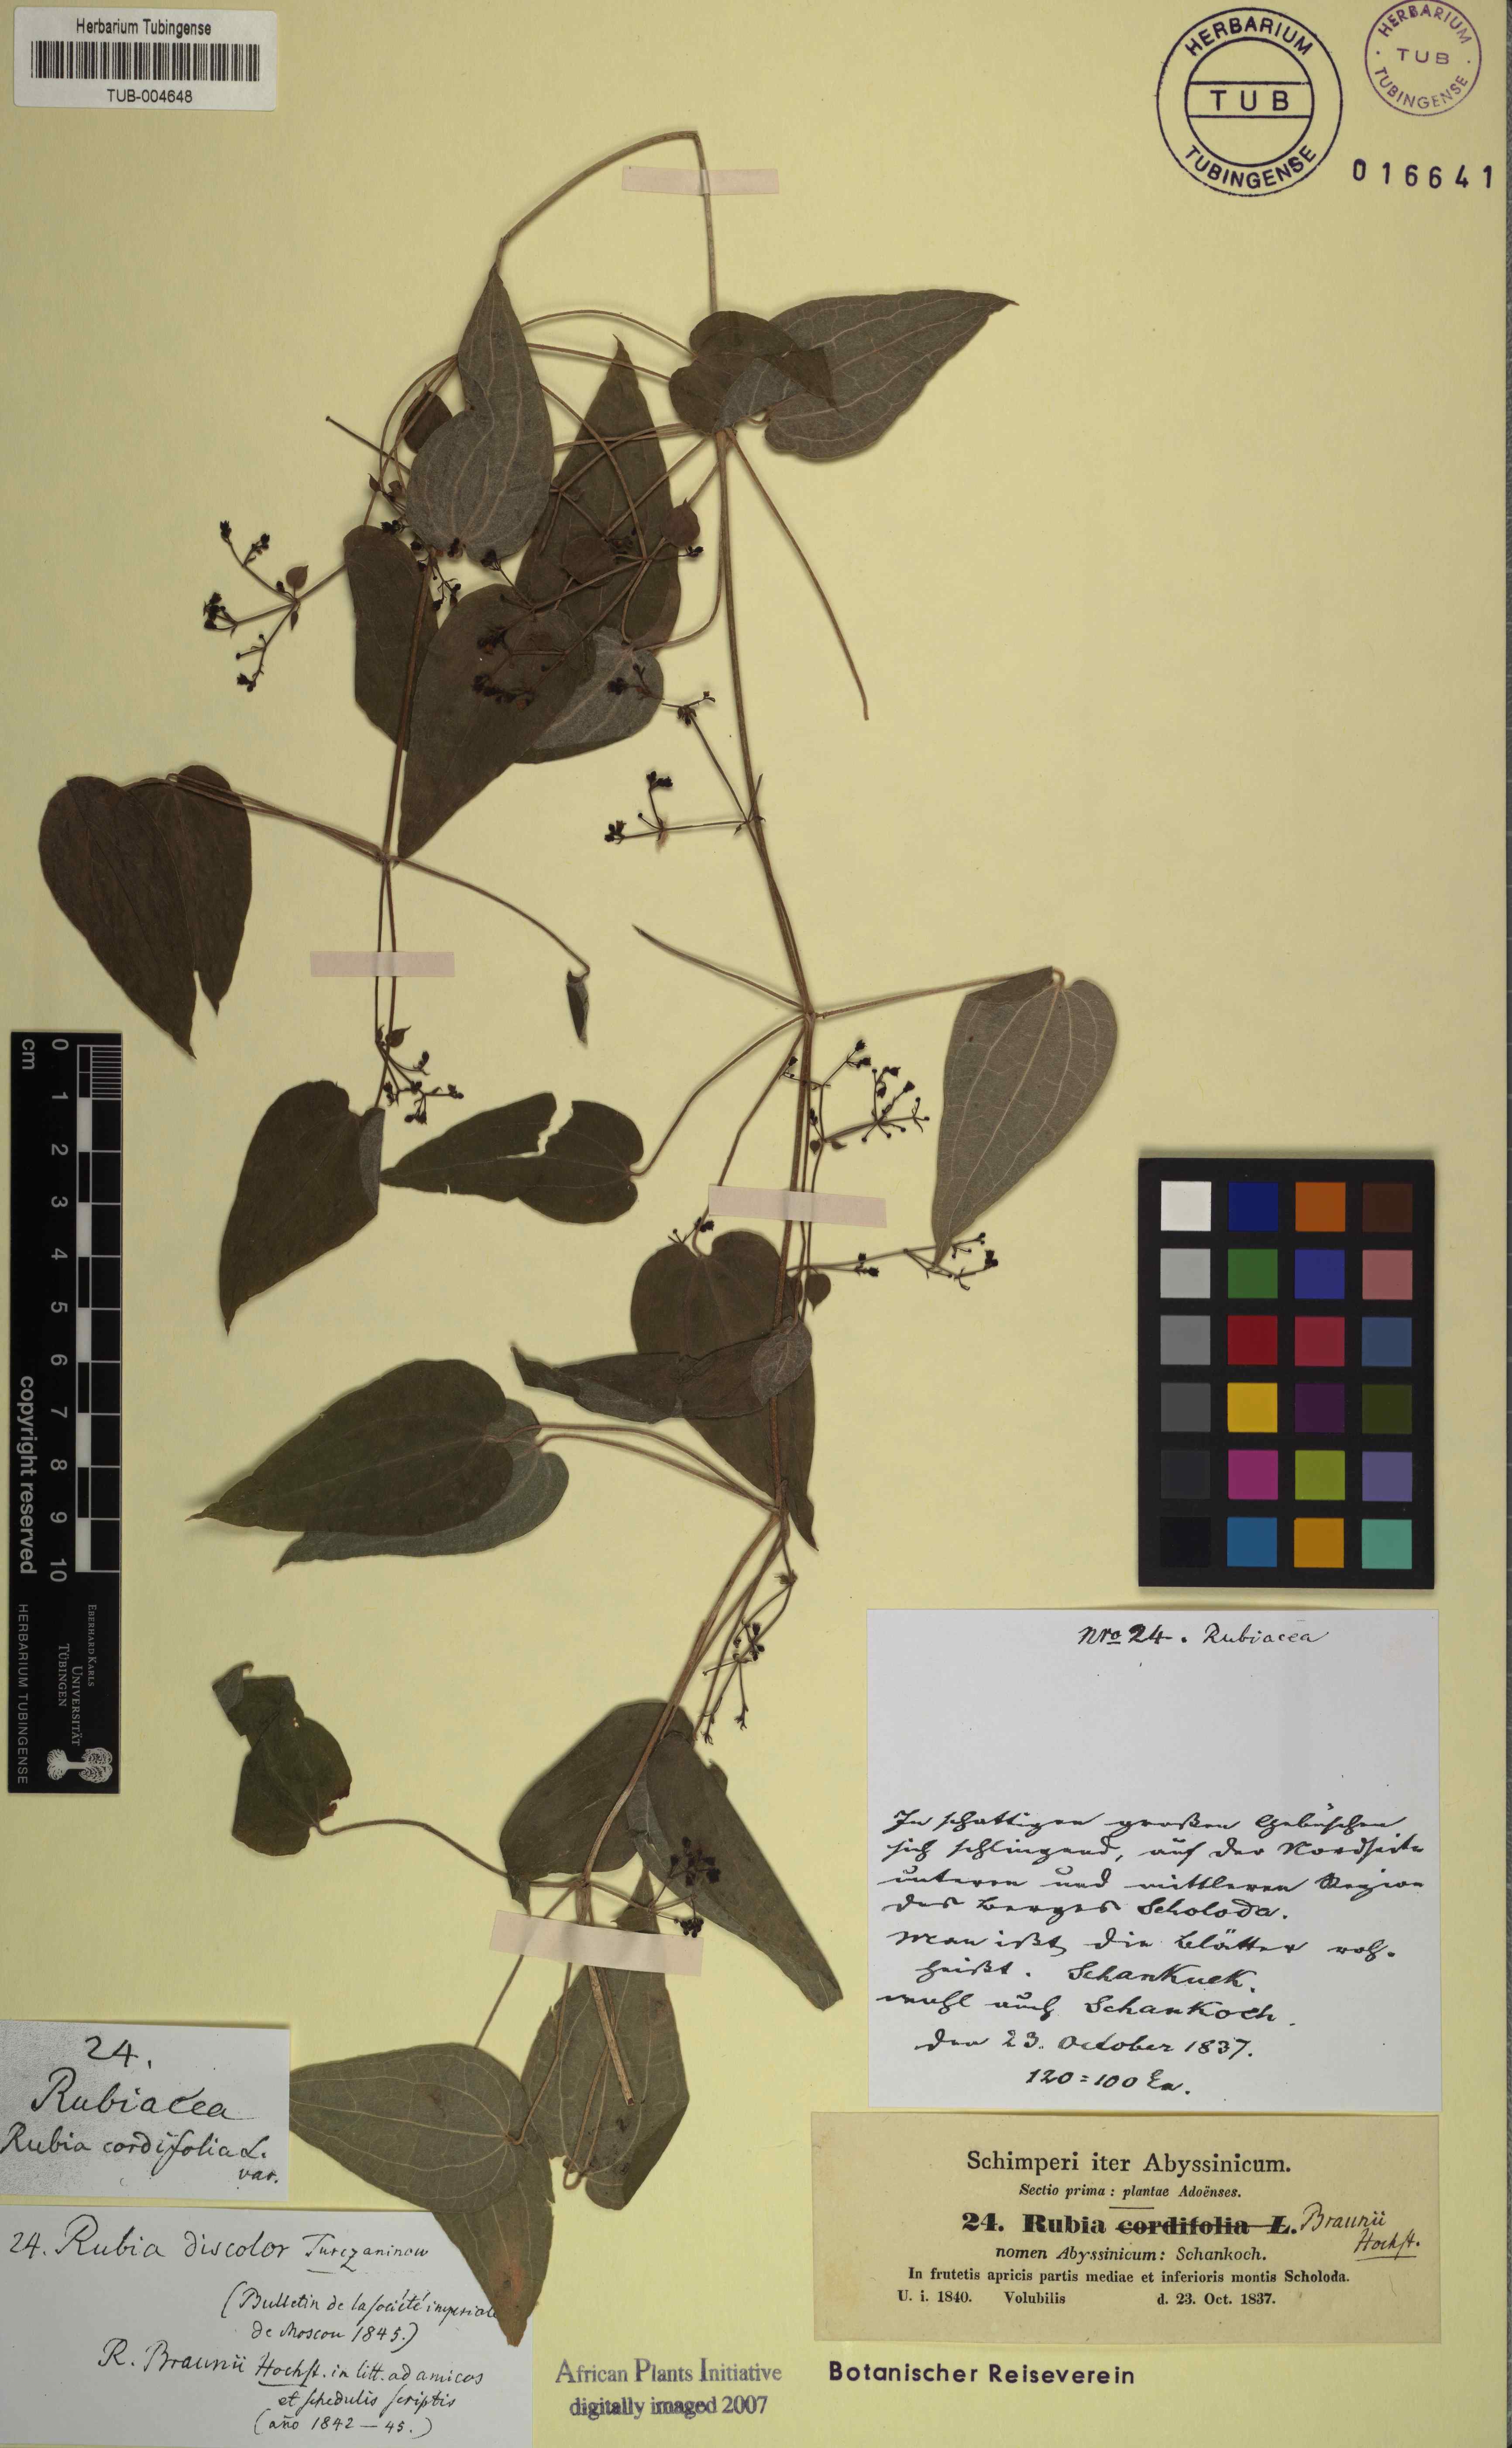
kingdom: Plantae
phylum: Tracheophyta
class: Magnoliopsida
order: Gentianales
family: Rubiaceae
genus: Rubia
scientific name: Rubia discolor
